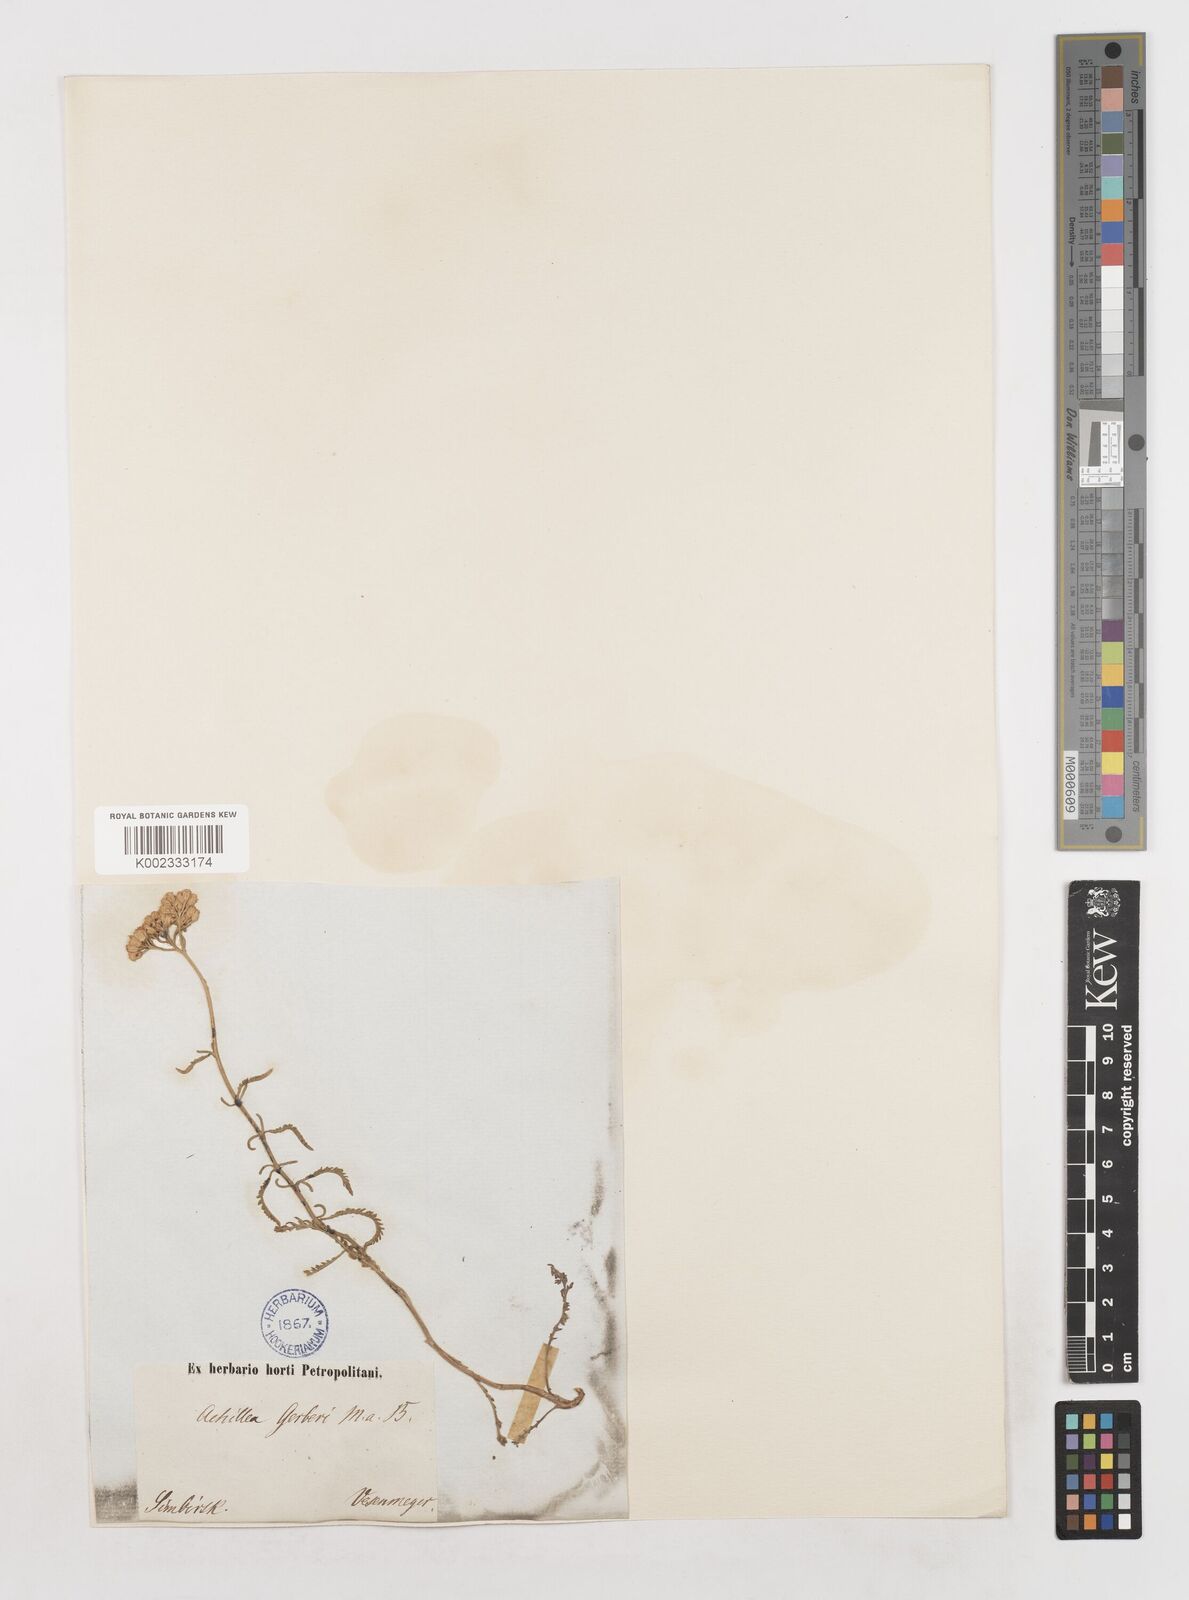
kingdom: Plantae
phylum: Tracheophyta
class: Magnoliopsida
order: Asterales
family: Asteraceae
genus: Achillea
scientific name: Achillea nobilis
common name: Noble yarrow
